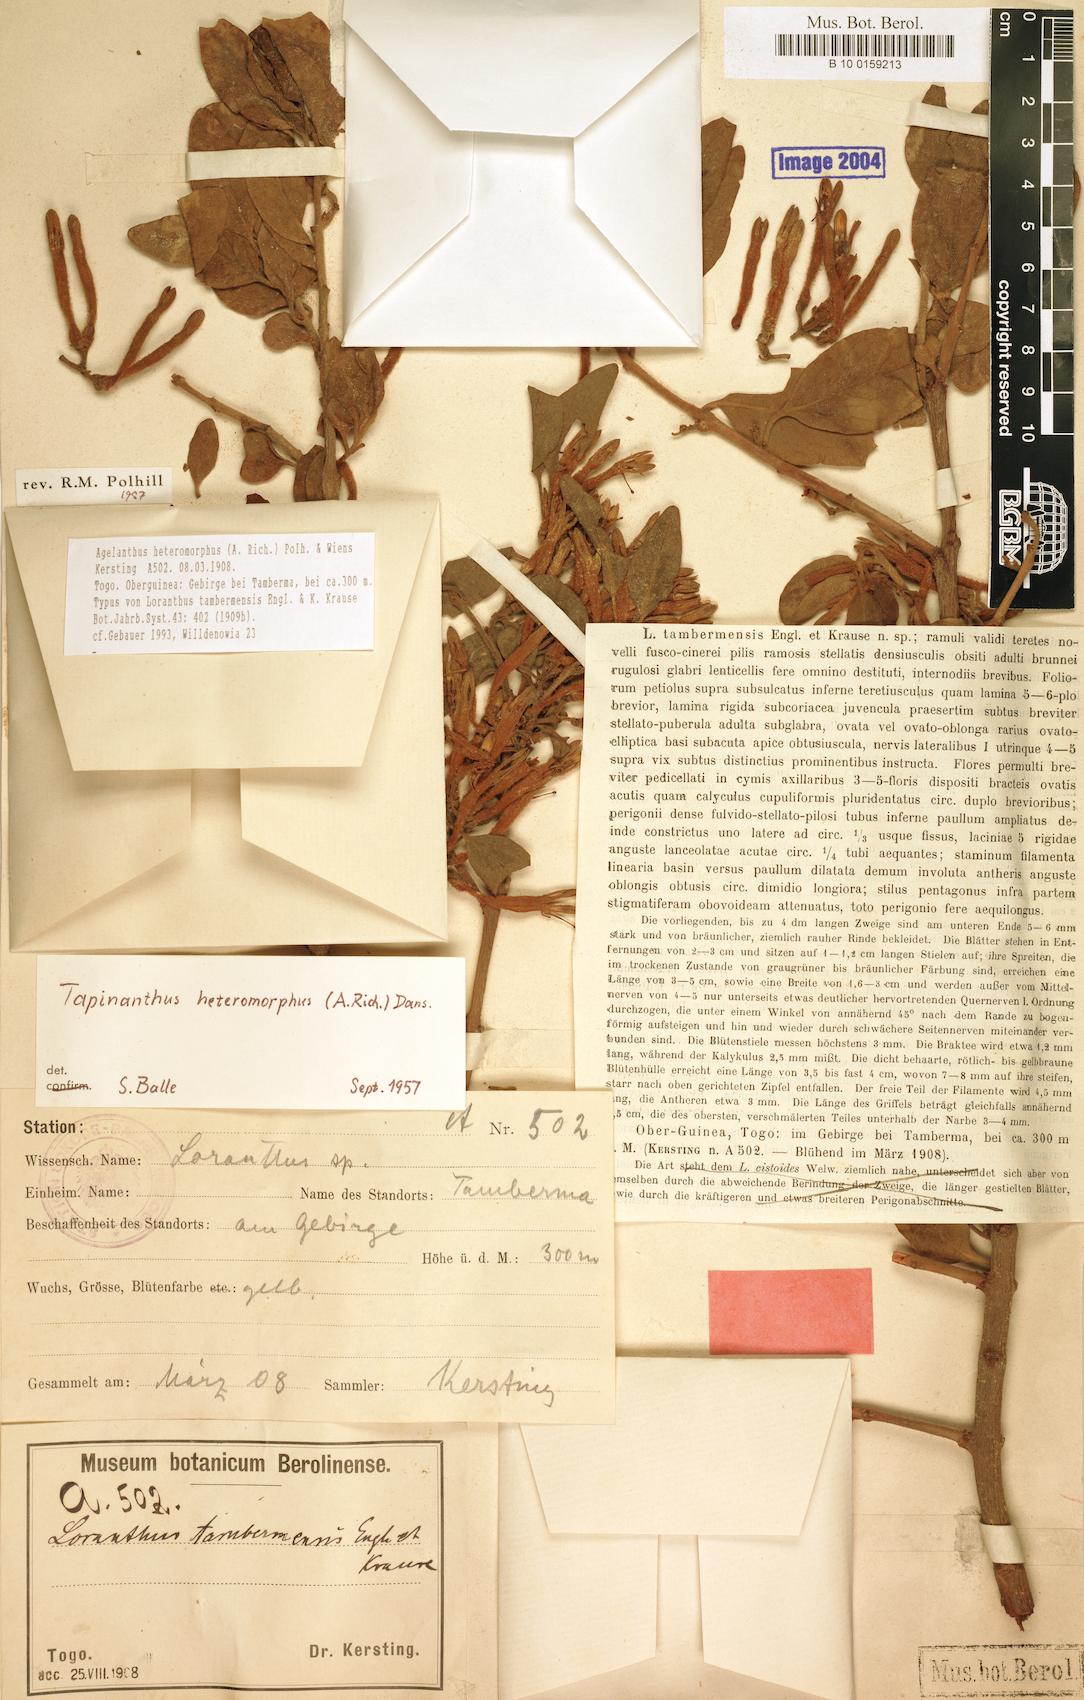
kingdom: Plantae
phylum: Tracheophyta
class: Magnoliopsida
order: Santalales
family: Loranthaceae
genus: Agelanthus
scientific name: Agelanthus heteromorphus
